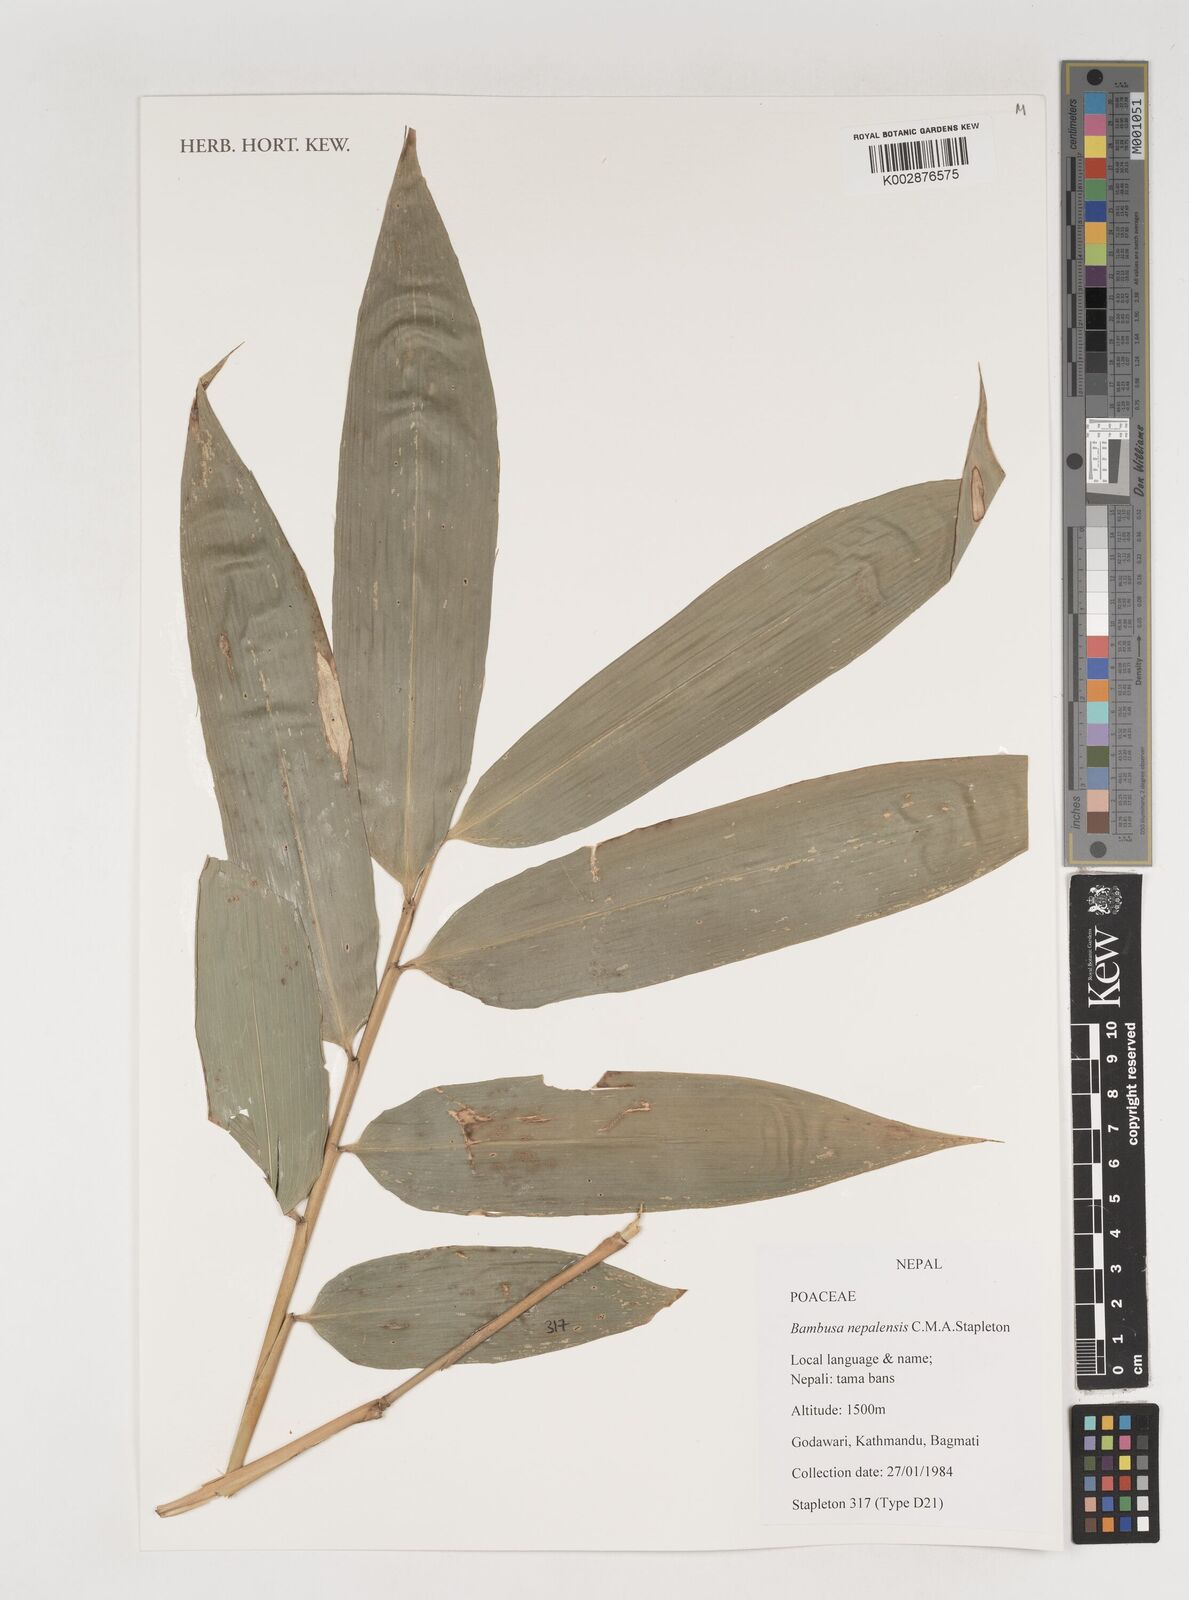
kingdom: Plantae
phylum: Tracheophyta
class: Liliopsida
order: Poales
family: Poaceae
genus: Bambusa
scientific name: Bambusa nepalensis
